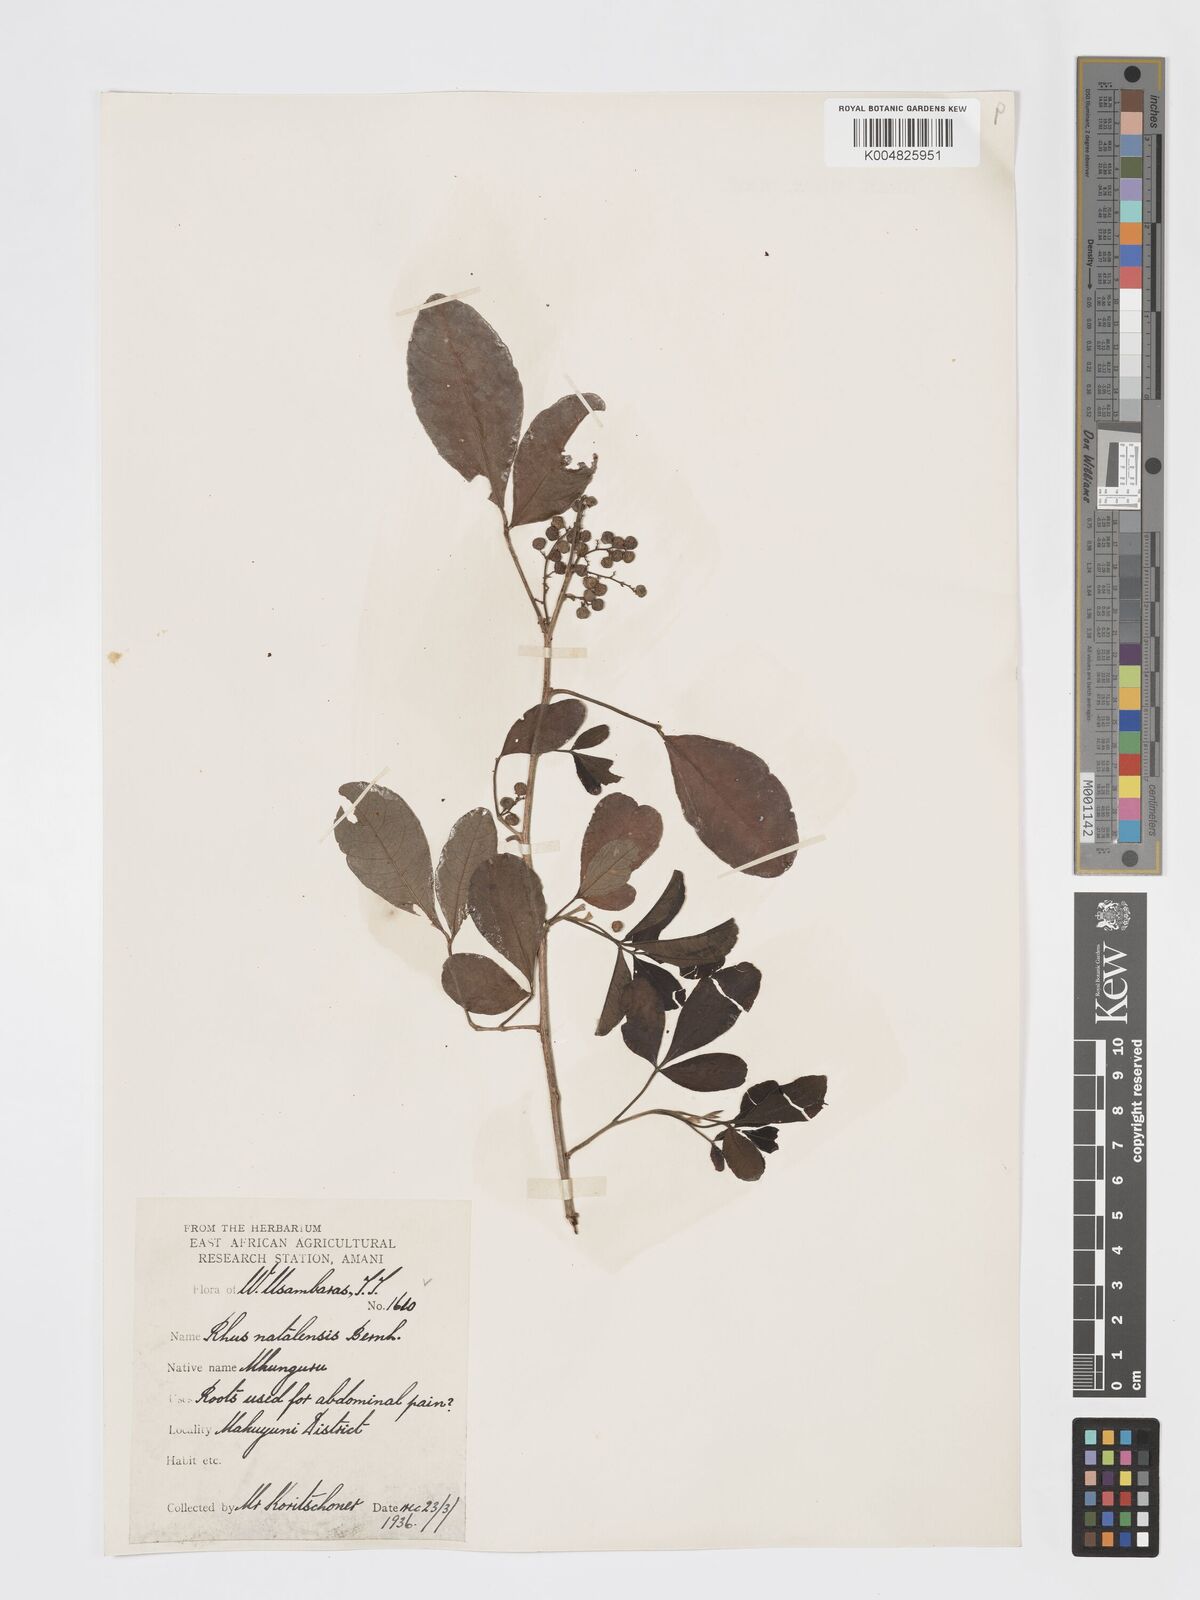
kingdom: Plantae
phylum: Tracheophyta
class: Magnoliopsida
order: Sapindales
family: Anacardiaceae
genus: Searsia
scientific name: Searsia natalensis
